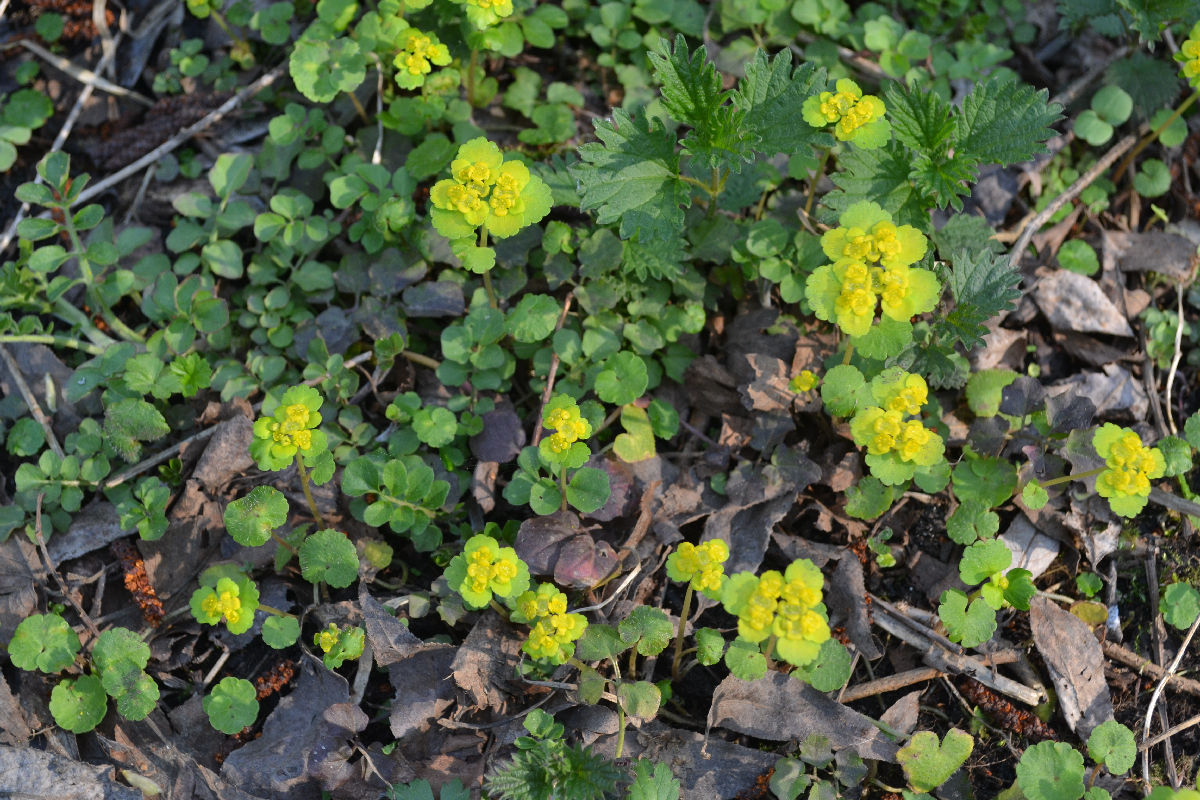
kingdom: Plantae
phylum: Tracheophyta
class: Magnoliopsida
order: Saxifragales
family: Saxifragaceae
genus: Chrysosplenium
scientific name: Chrysosplenium alternifolium
